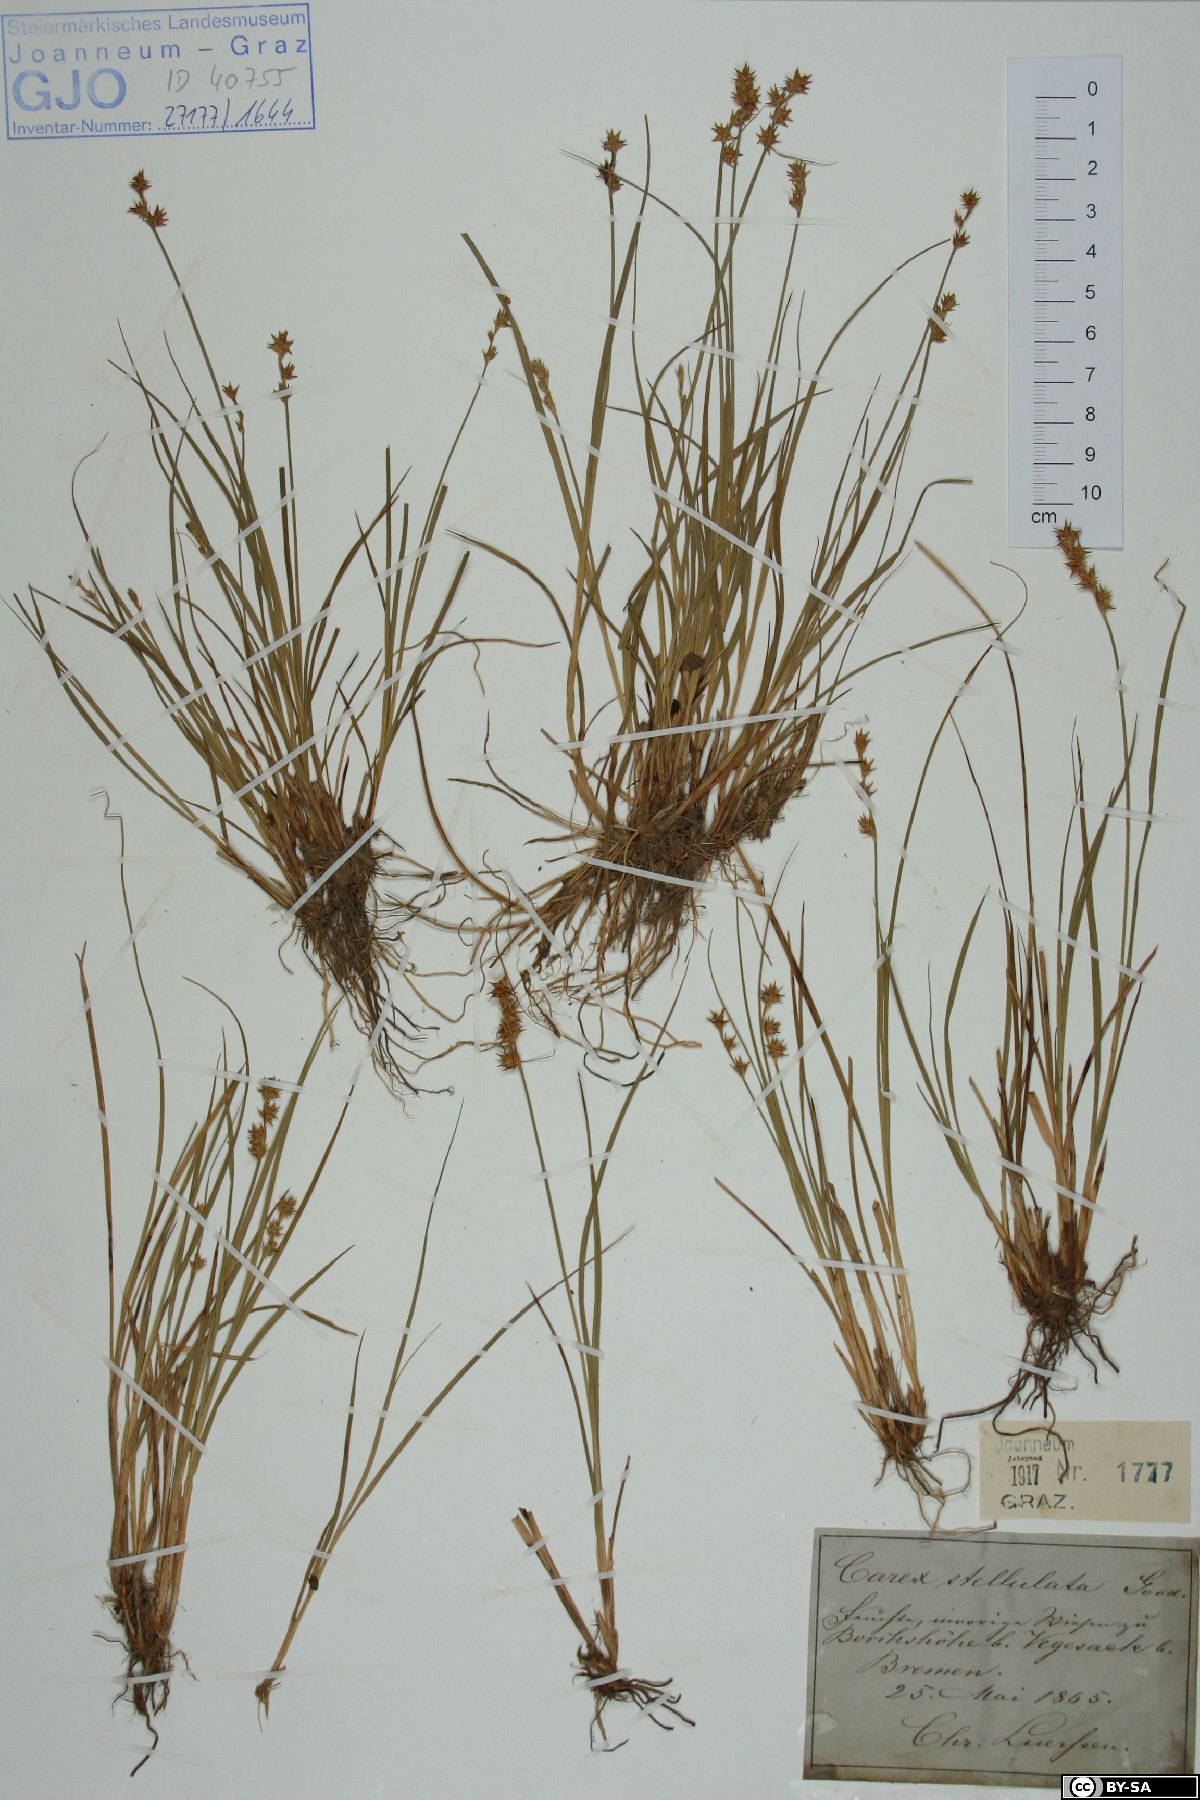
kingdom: Plantae
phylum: Tracheophyta
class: Liliopsida
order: Poales
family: Cyperaceae
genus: Carex
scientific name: Carex echinata
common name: Star sedge
